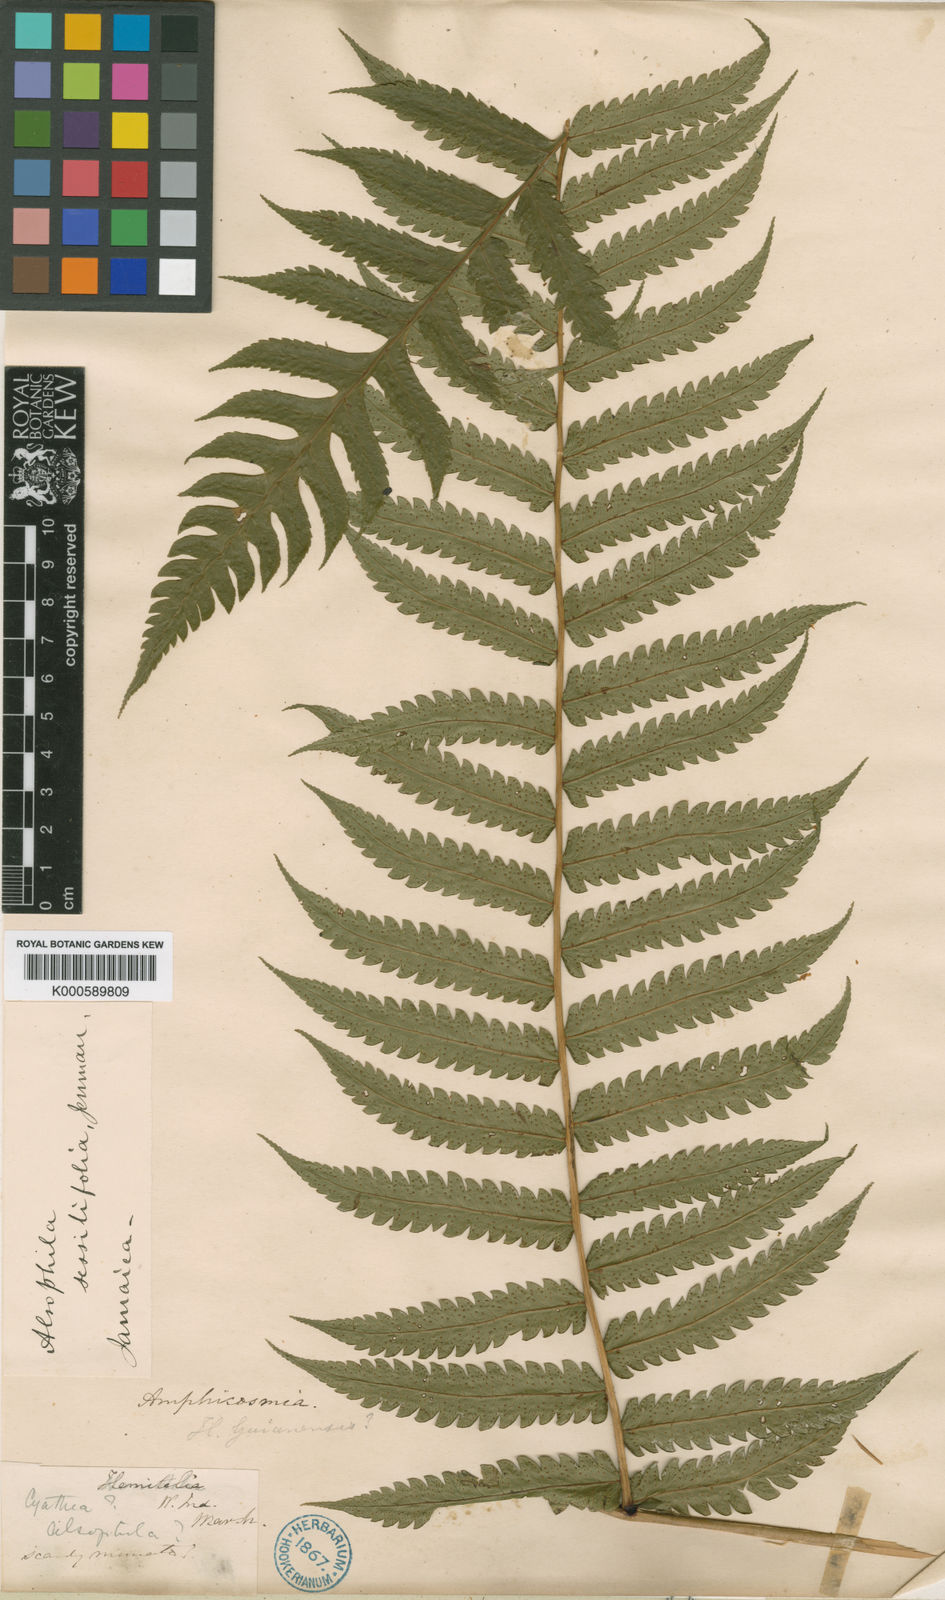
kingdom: Plantae
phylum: Tracheophyta
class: Polypodiopsida
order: Cyatheales
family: Cyatheaceae
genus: Cyathea
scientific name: Cyathea
